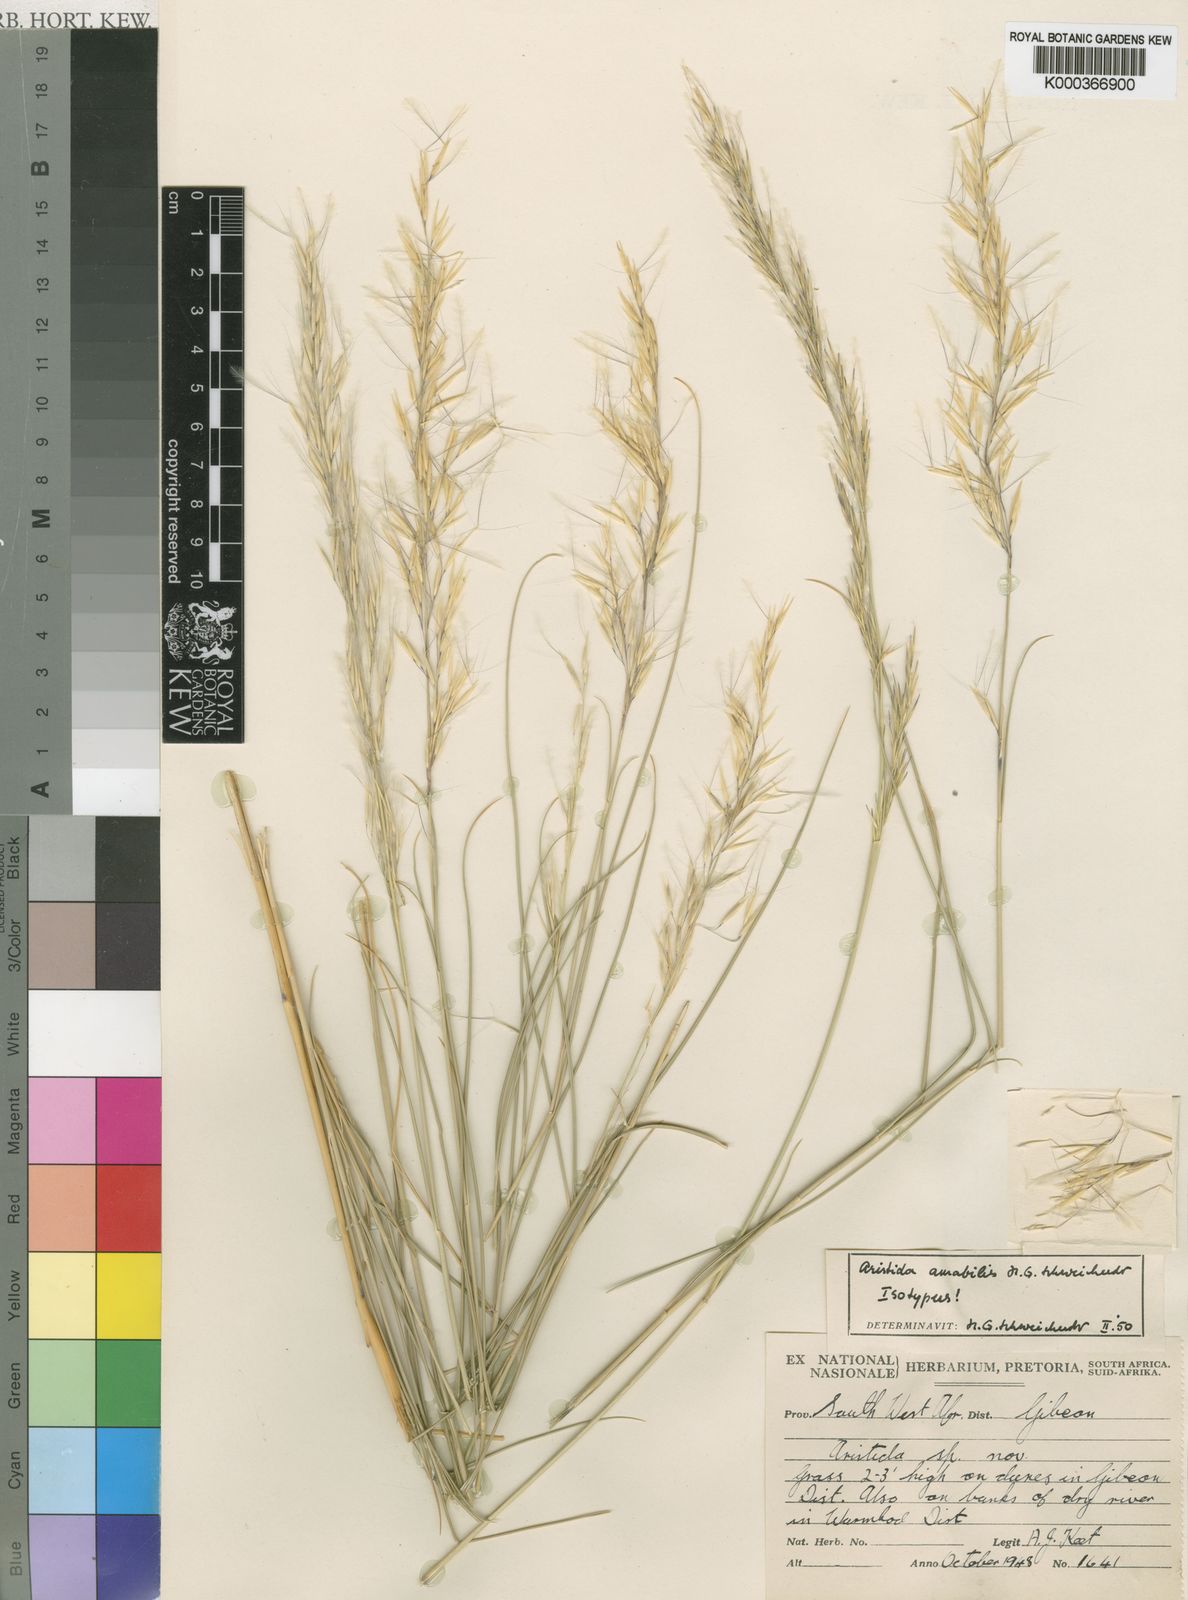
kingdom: Plantae
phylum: Tracheophyta
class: Liliopsida
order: Poales
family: Poaceae
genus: Stipagrostis
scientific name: Stipagrostis amabilis
